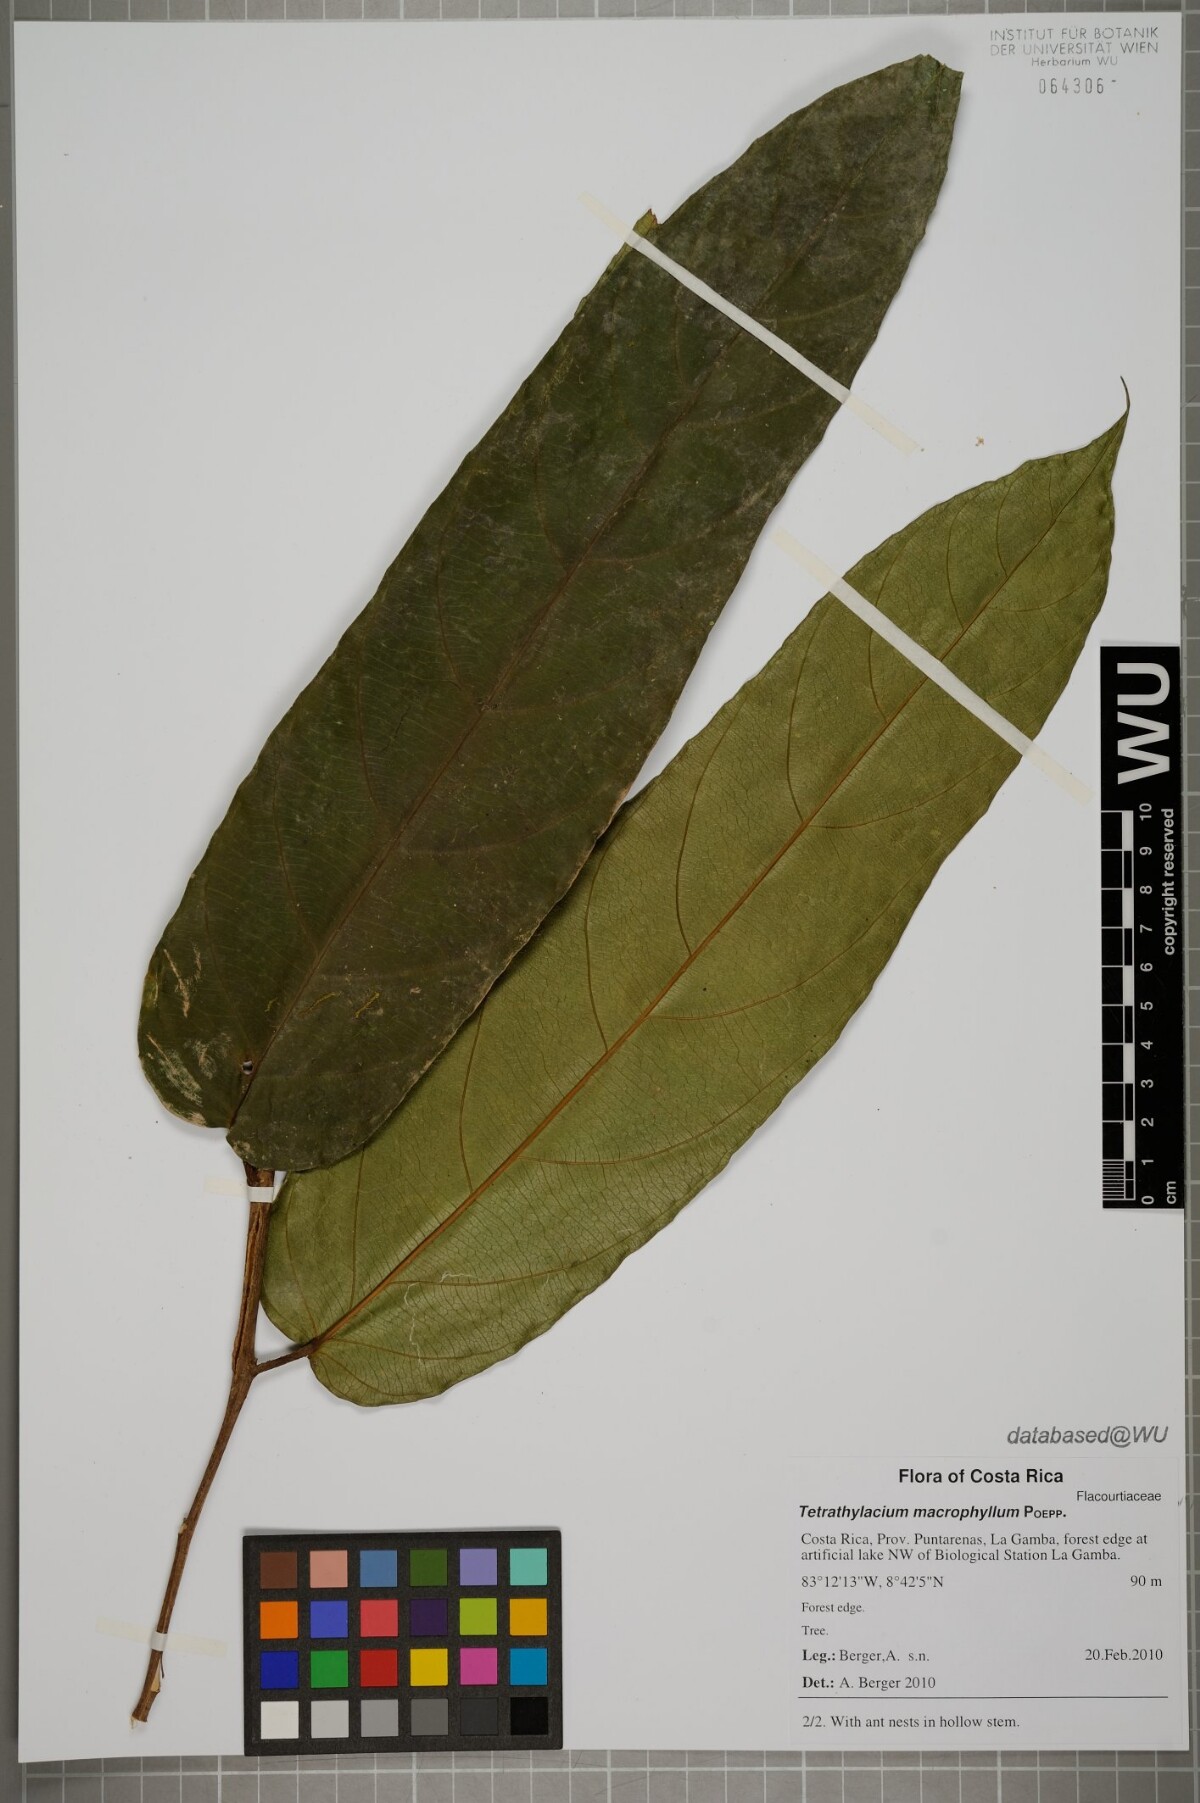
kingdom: Plantae
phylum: Tracheophyta
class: Magnoliopsida
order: Malpighiales
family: Salicaceae
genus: Tetrathylacium
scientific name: Tetrathylacium macrophyllum
